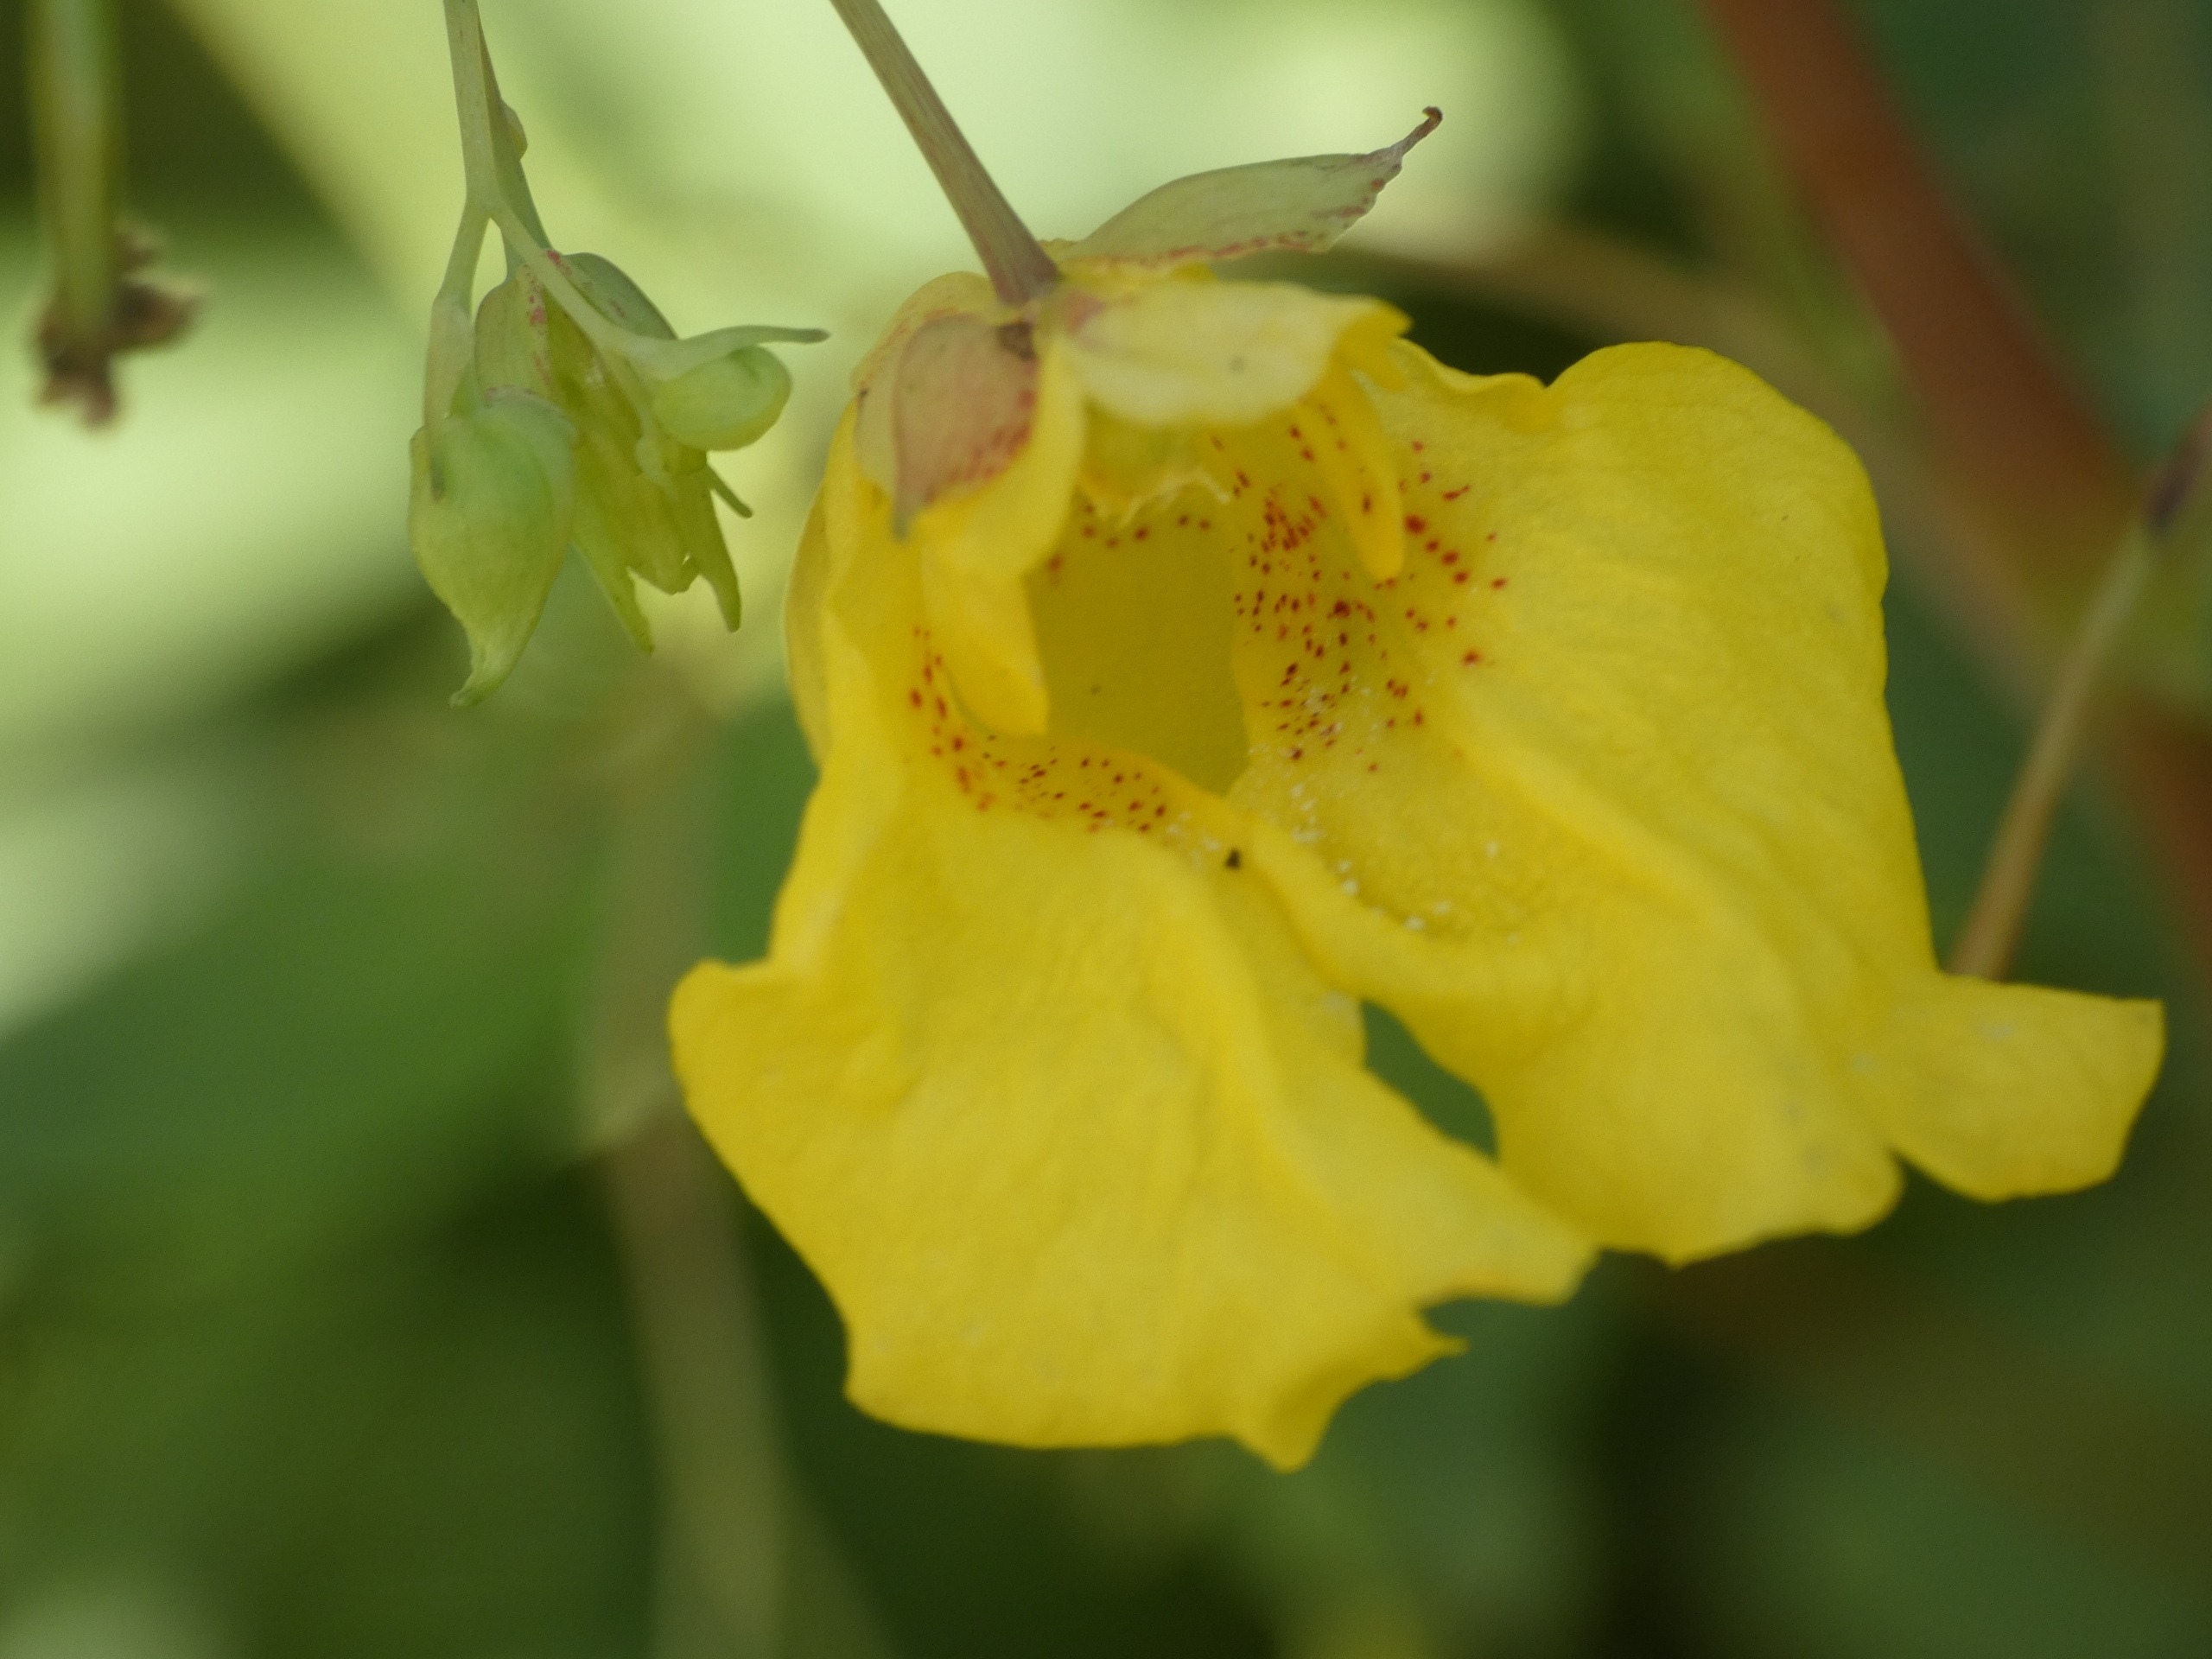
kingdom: Plantae
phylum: Tracheophyta
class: Magnoliopsida
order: Ericales
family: Balsaminaceae
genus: Impatiens
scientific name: Impatiens noli-tangere
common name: Spring-balsamin
